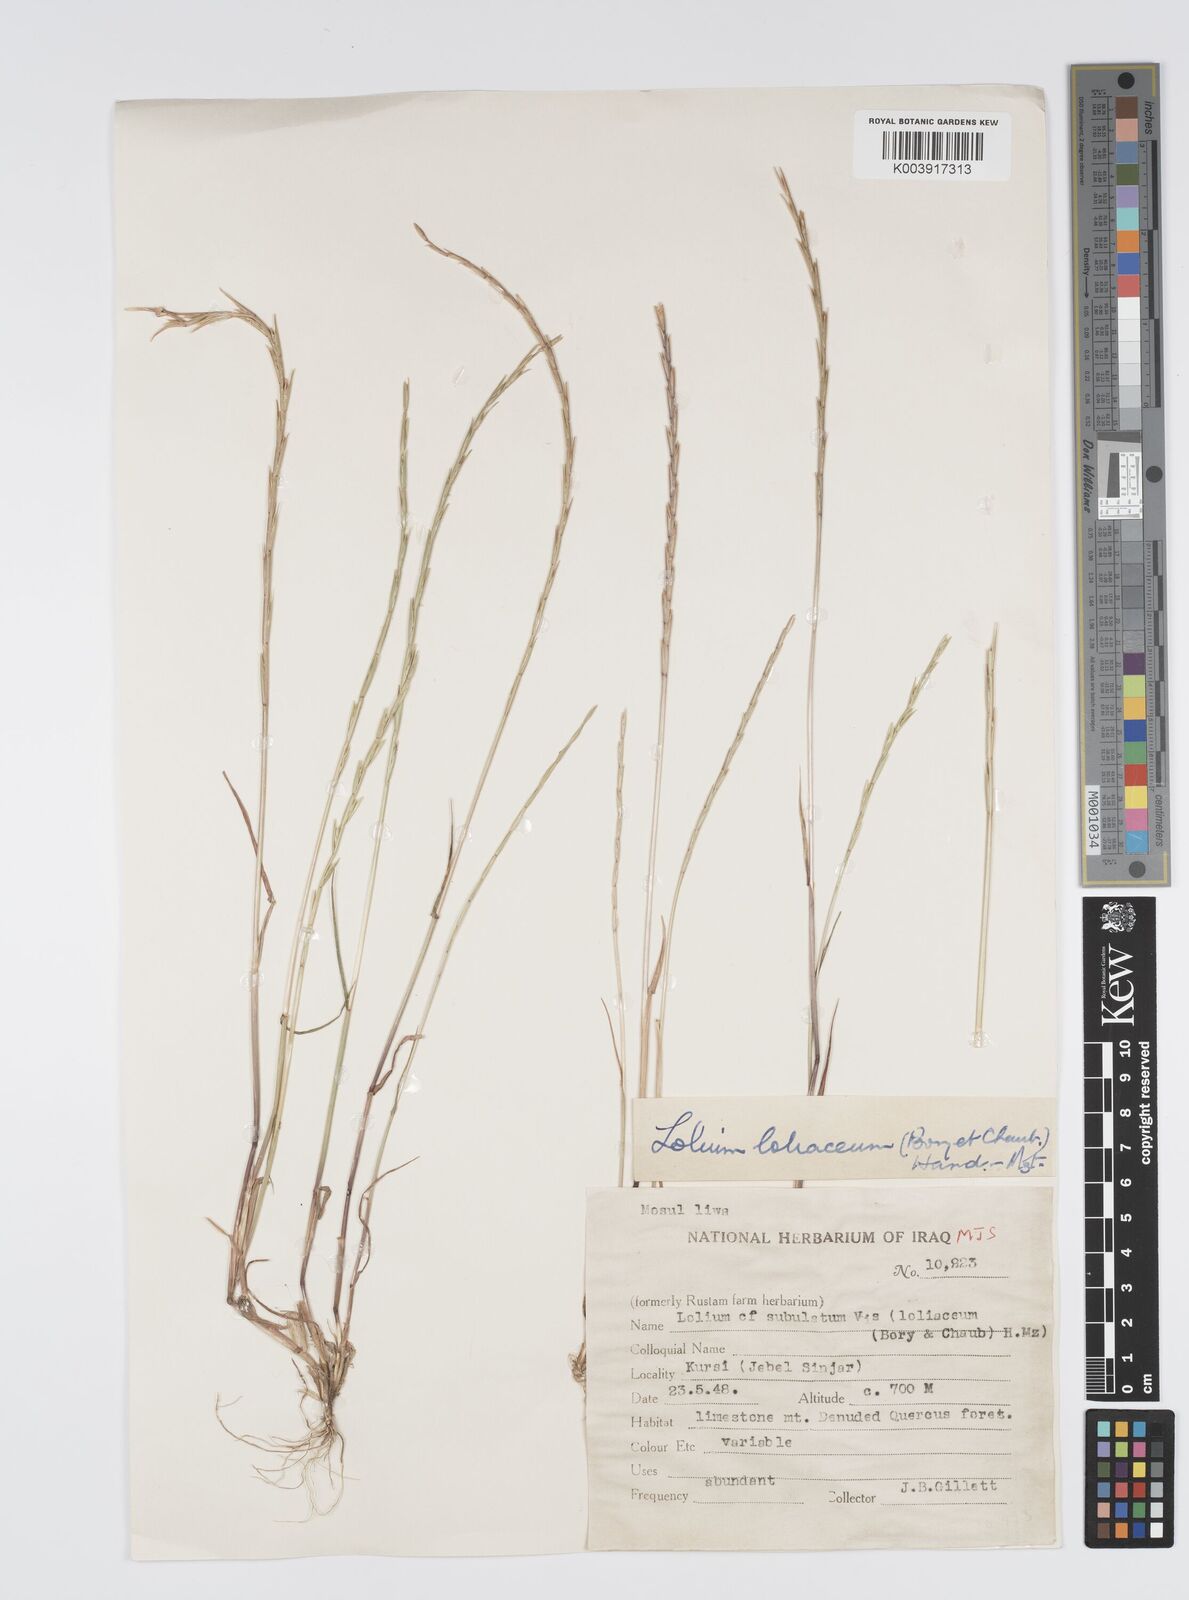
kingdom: Plantae
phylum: Tracheophyta
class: Liliopsida
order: Poales
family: Poaceae
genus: Lolium
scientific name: Lolium rigidum
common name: Wimmera ryegrass
